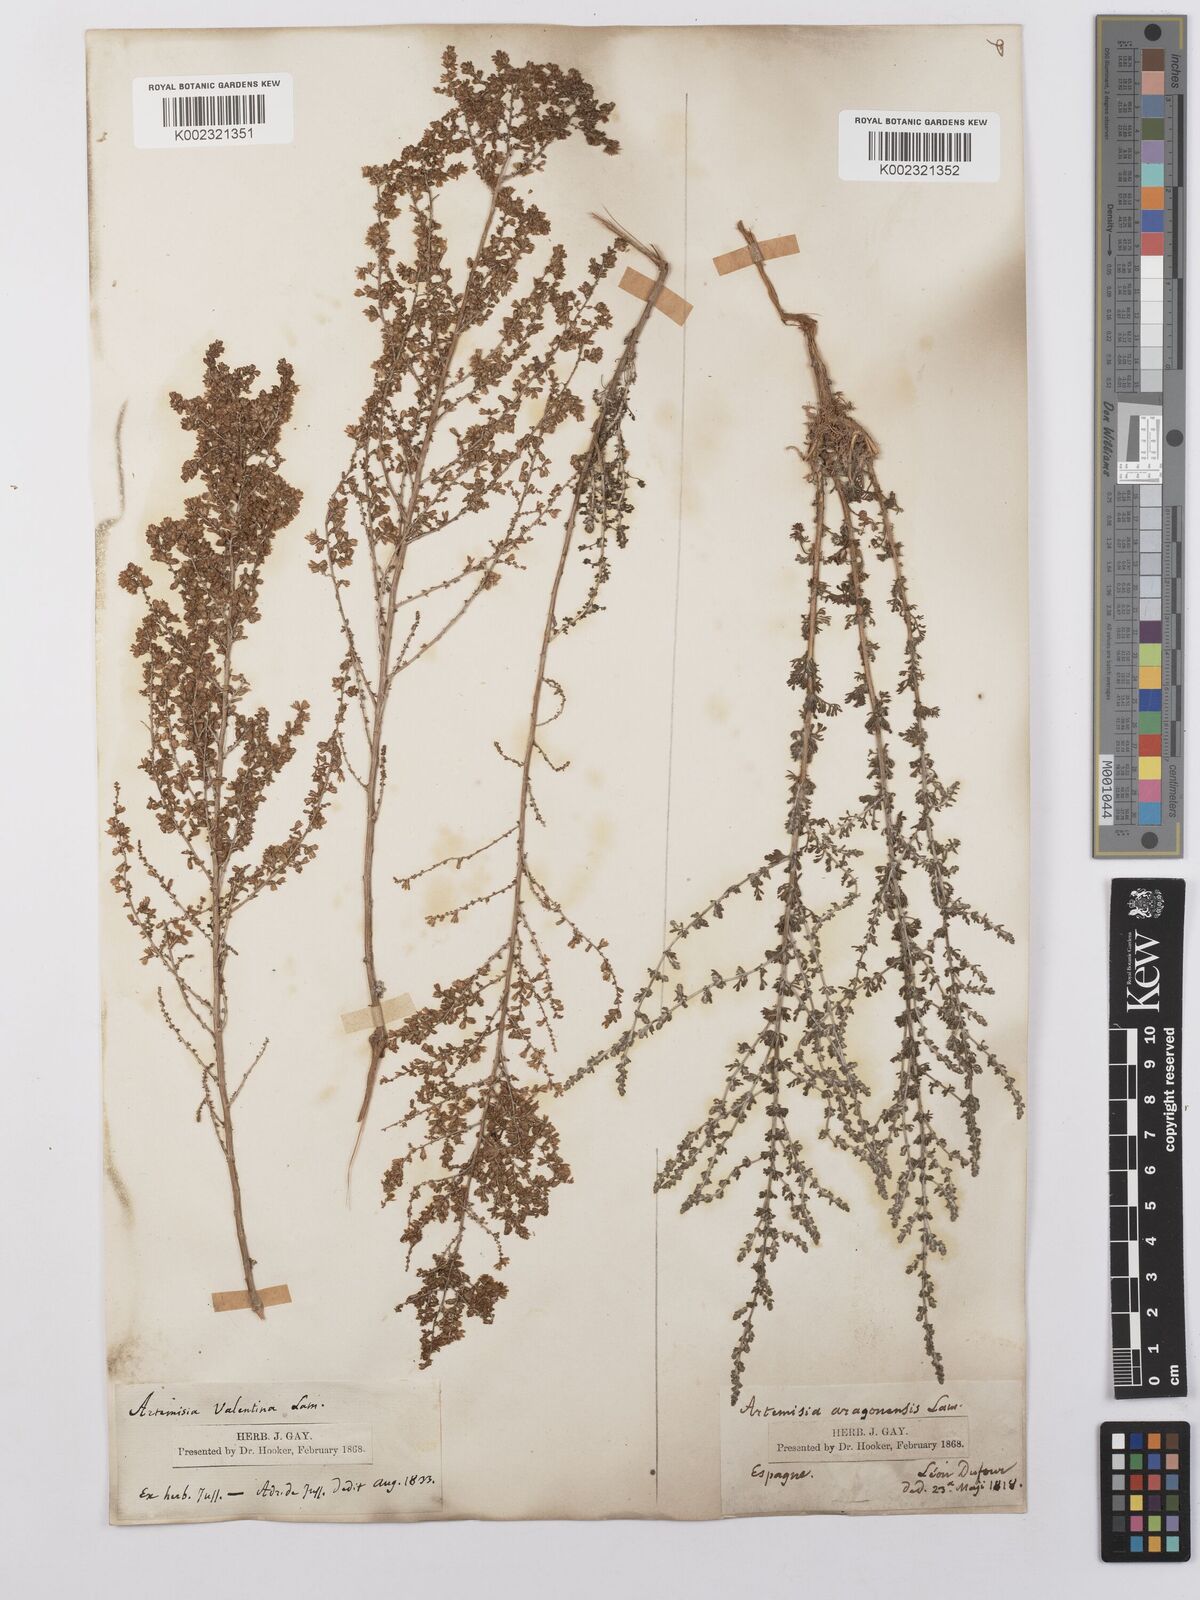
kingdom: Plantae
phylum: Tracheophyta
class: Magnoliopsida
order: Asterales
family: Asteraceae
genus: Artemisia
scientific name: Artemisia herba-alba
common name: White wormwood
